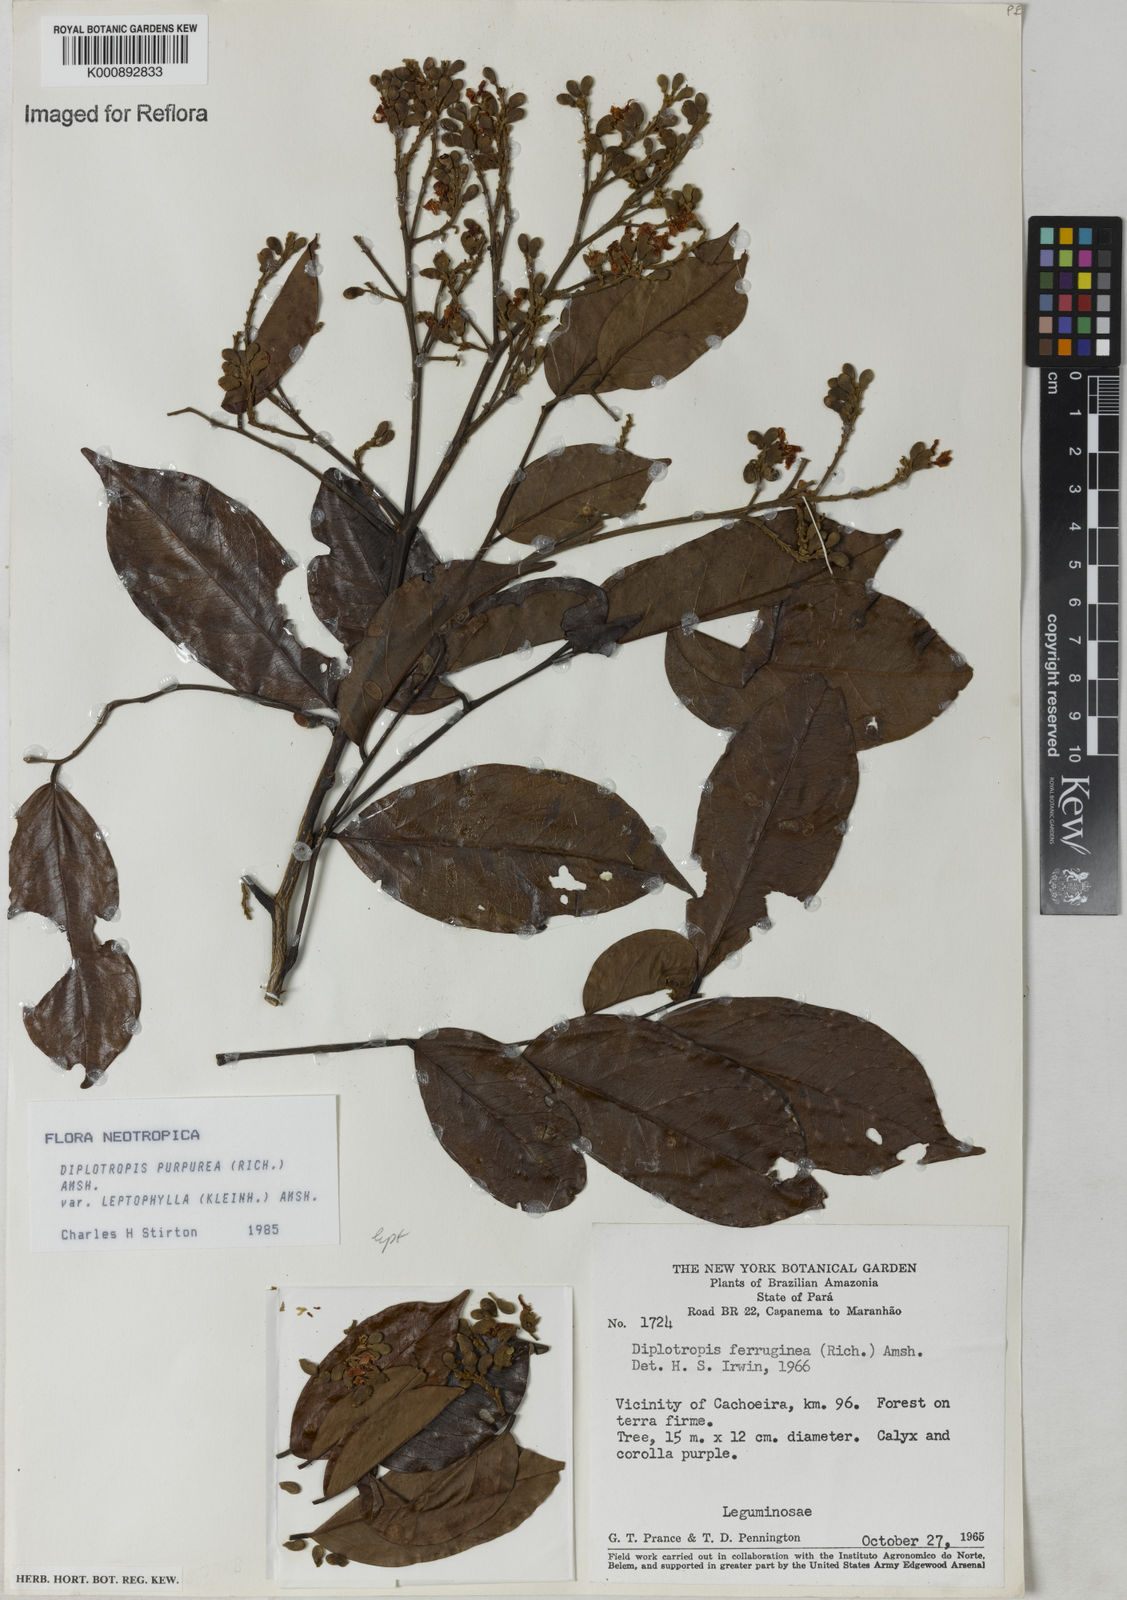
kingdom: Plantae
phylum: Tracheophyta
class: Magnoliopsida
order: Fabales
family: Fabaceae
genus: Diplotropis
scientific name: Diplotropis purpurea
